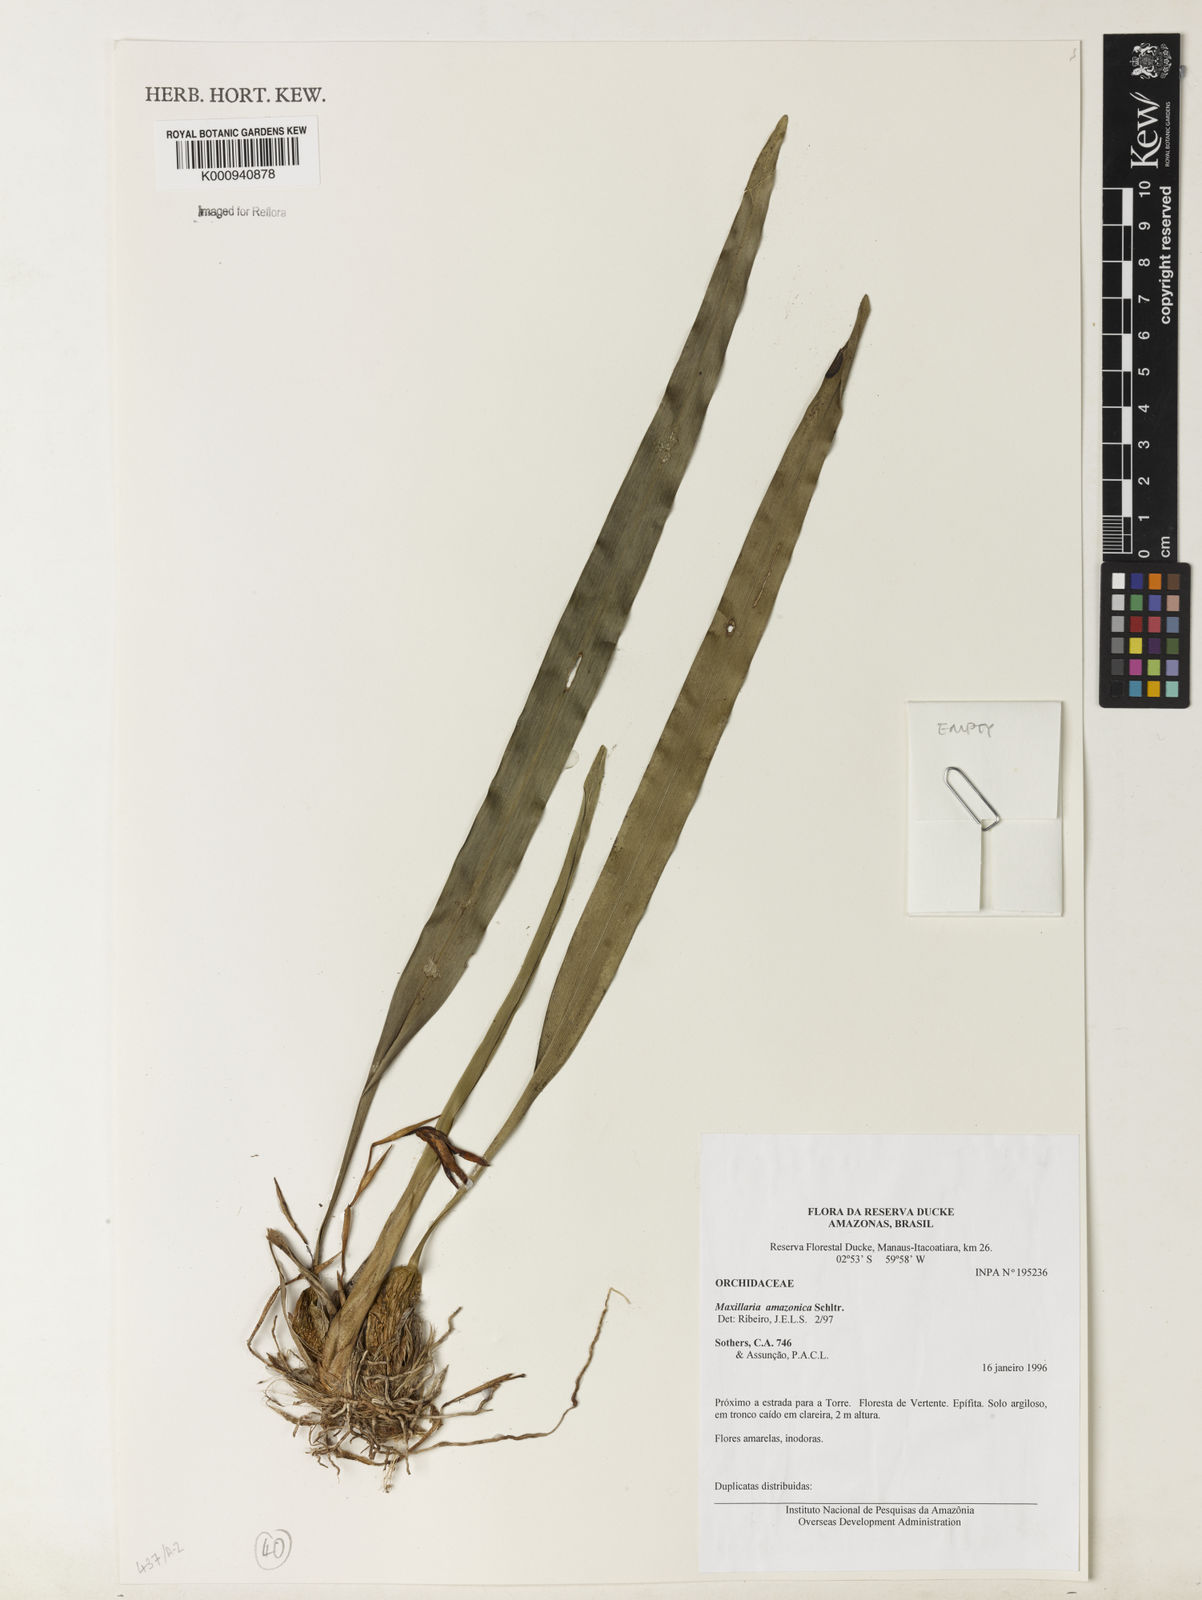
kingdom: Plantae
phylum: Tracheophyta
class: Liliopsida
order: Asparagales
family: Orchidaceae
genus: Maxillaria
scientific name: Maxillaria kegelii
